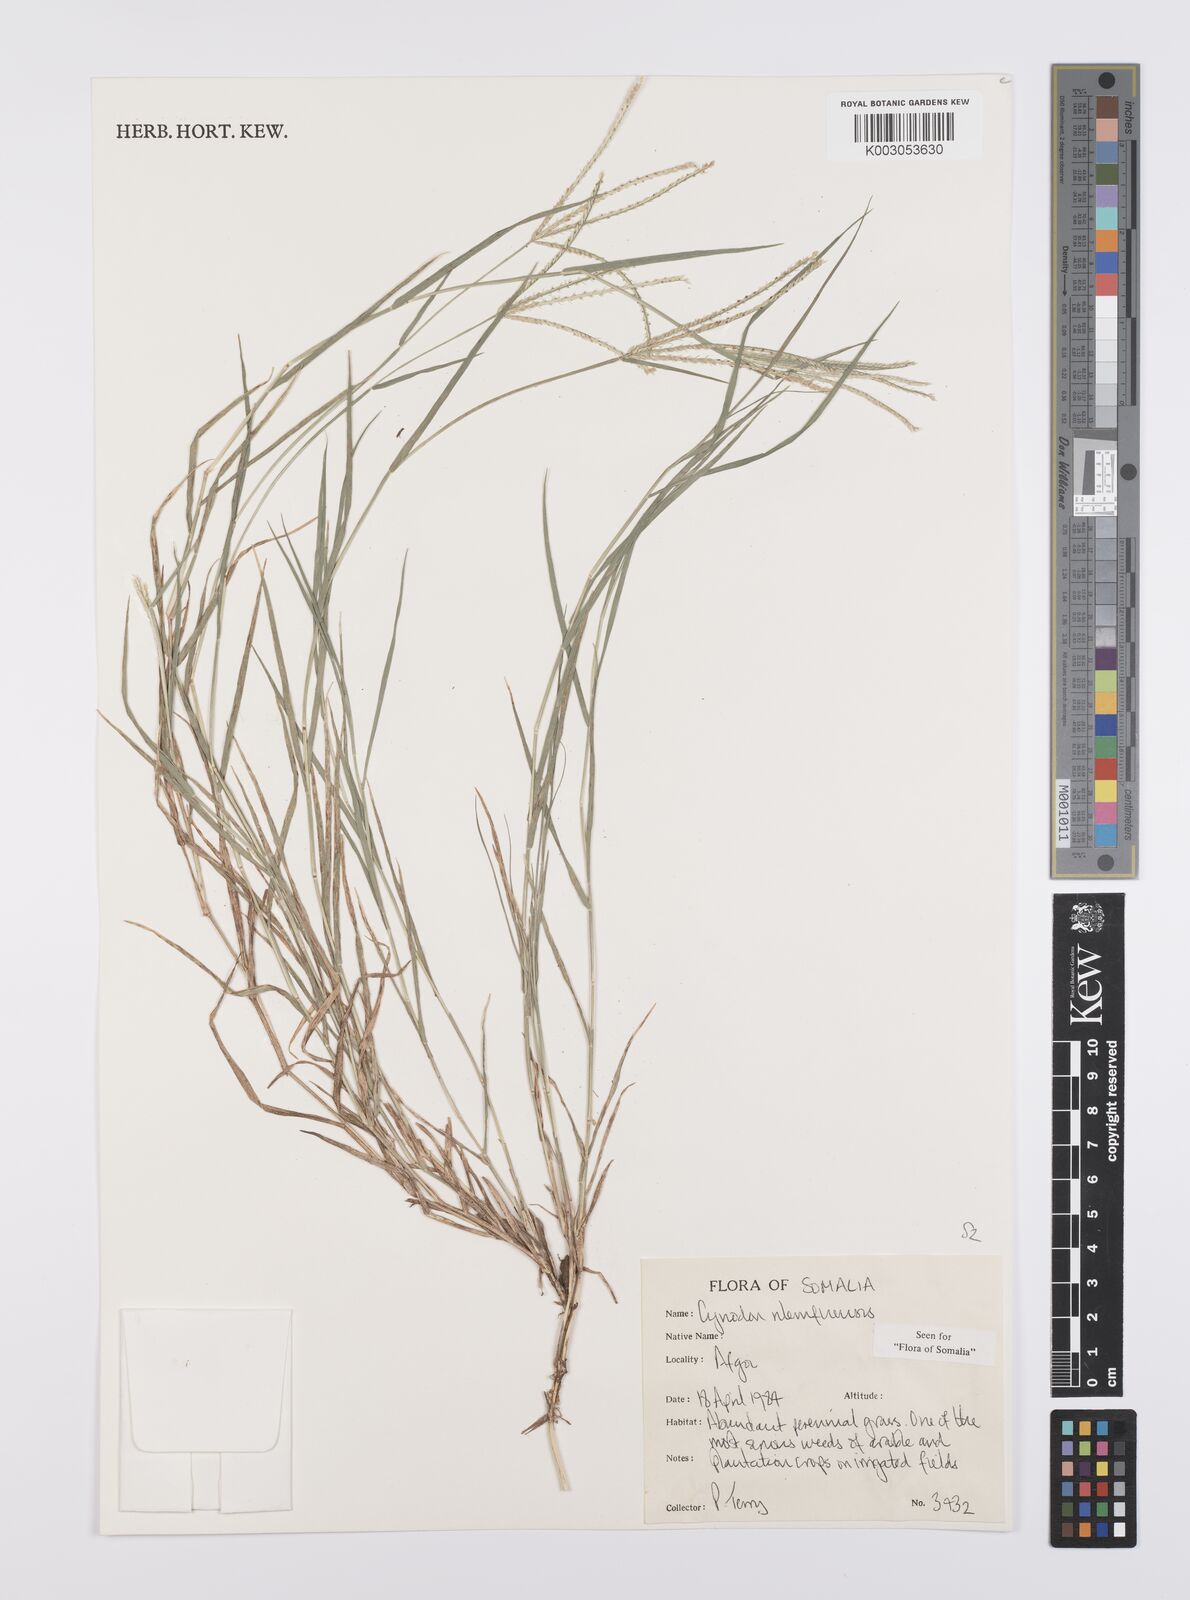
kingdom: Plantae
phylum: Tracheophyta
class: Liliopsida
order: Poales
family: Poaceae
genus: Cynodon
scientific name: Cynodon nlemfuensis
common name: African bermudagrass
